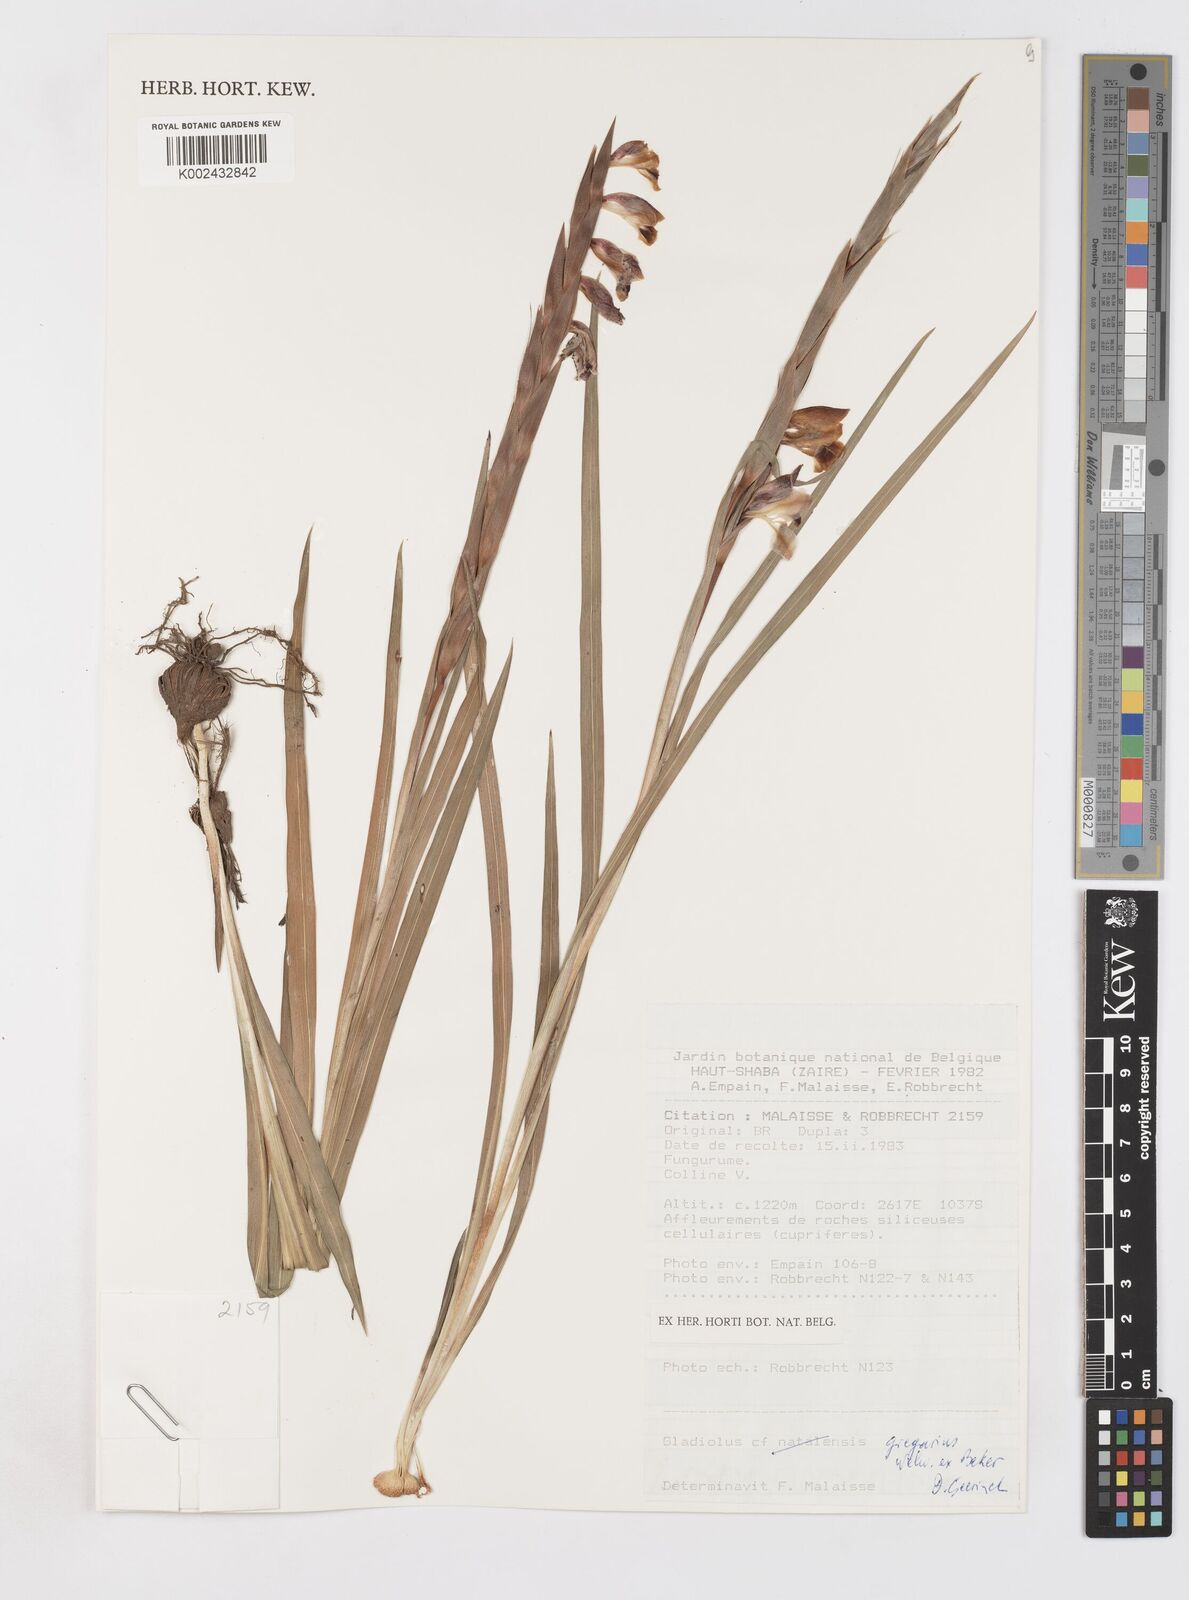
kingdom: Plantae
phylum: Tracheophyta
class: Liliopsida
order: Asparagales
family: Iridaceae
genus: Gladiolus
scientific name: Gladiolus gregarius
